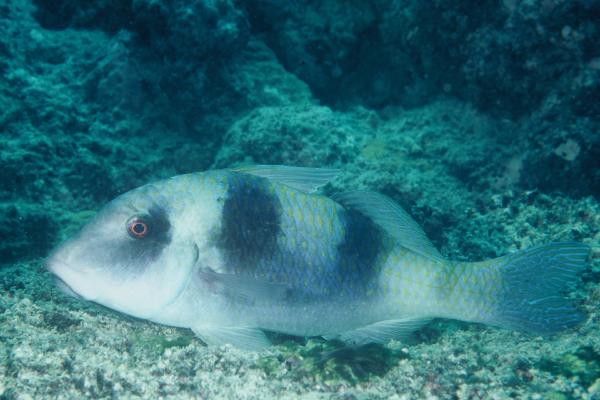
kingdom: Animalia
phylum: Chordata
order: Perciformes
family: Mullidae
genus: Parupeneus
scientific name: Parupeneus trifasciatus
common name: Doublebar goatfish
